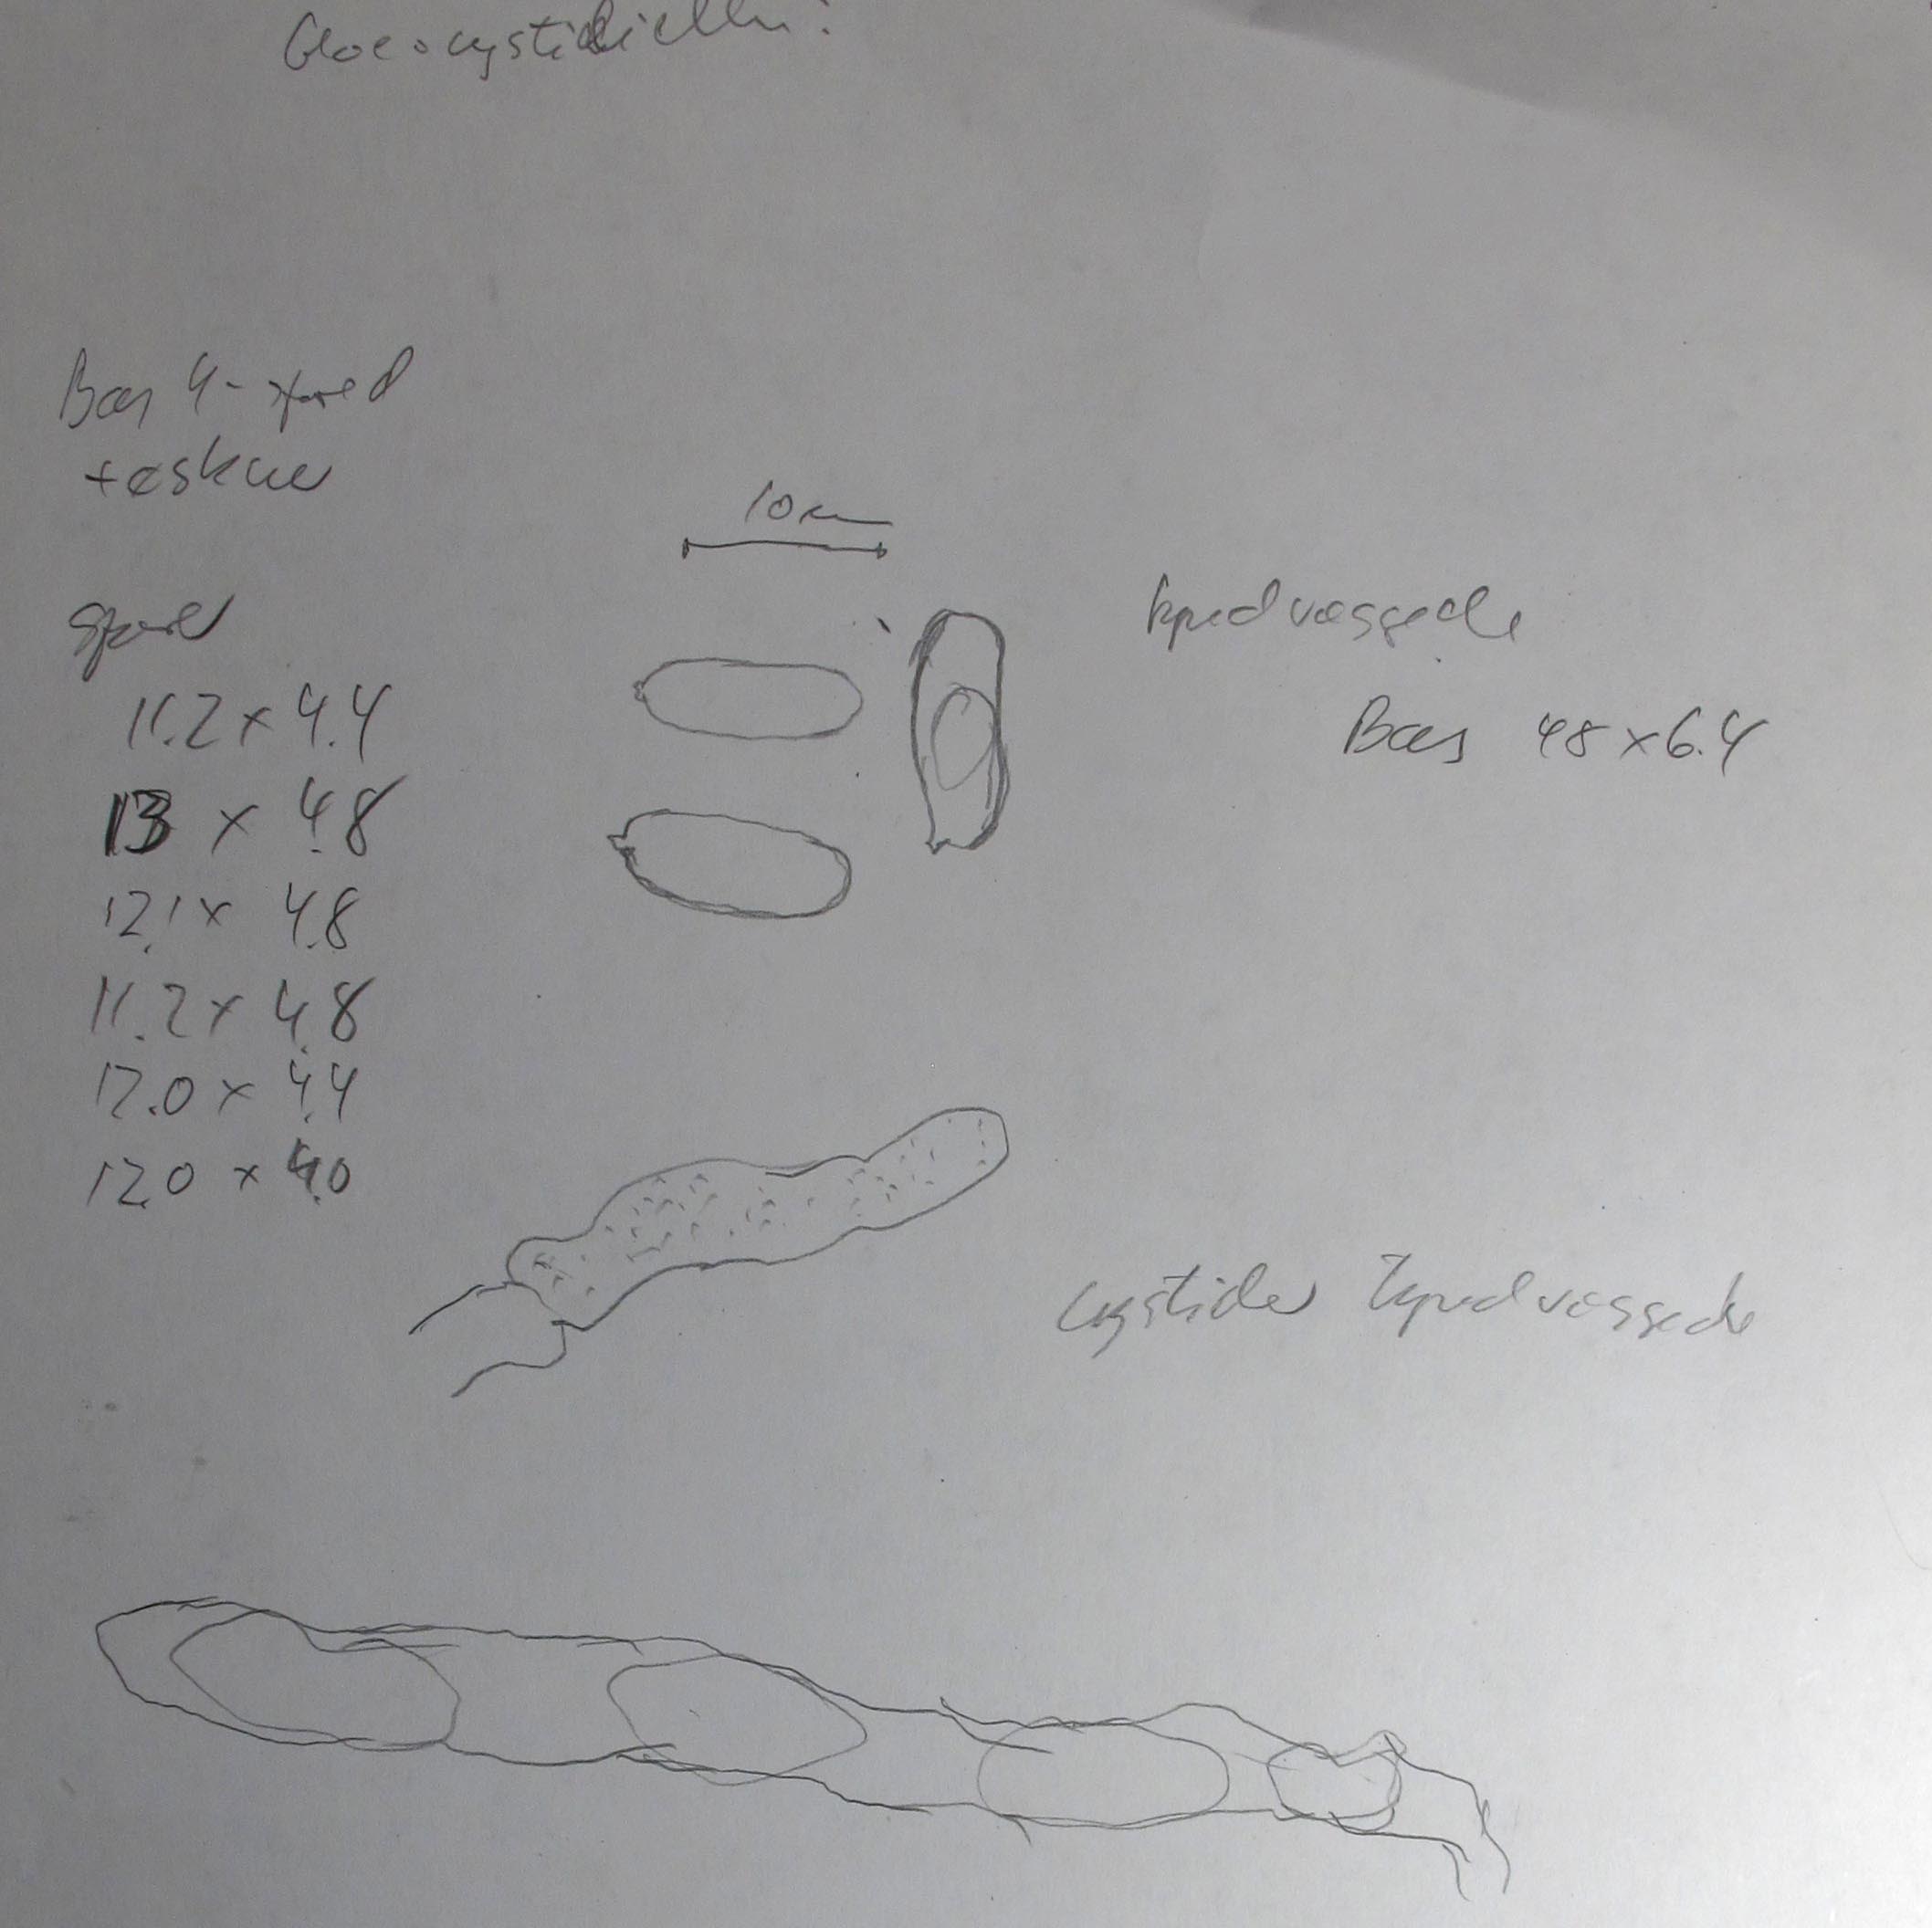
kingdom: Fungi
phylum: Basidiomycota
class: Agaricomycetes
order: Russulales
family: Stereaceae
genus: Megalocystidium
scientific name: Megalocystidium leucoxanthum
